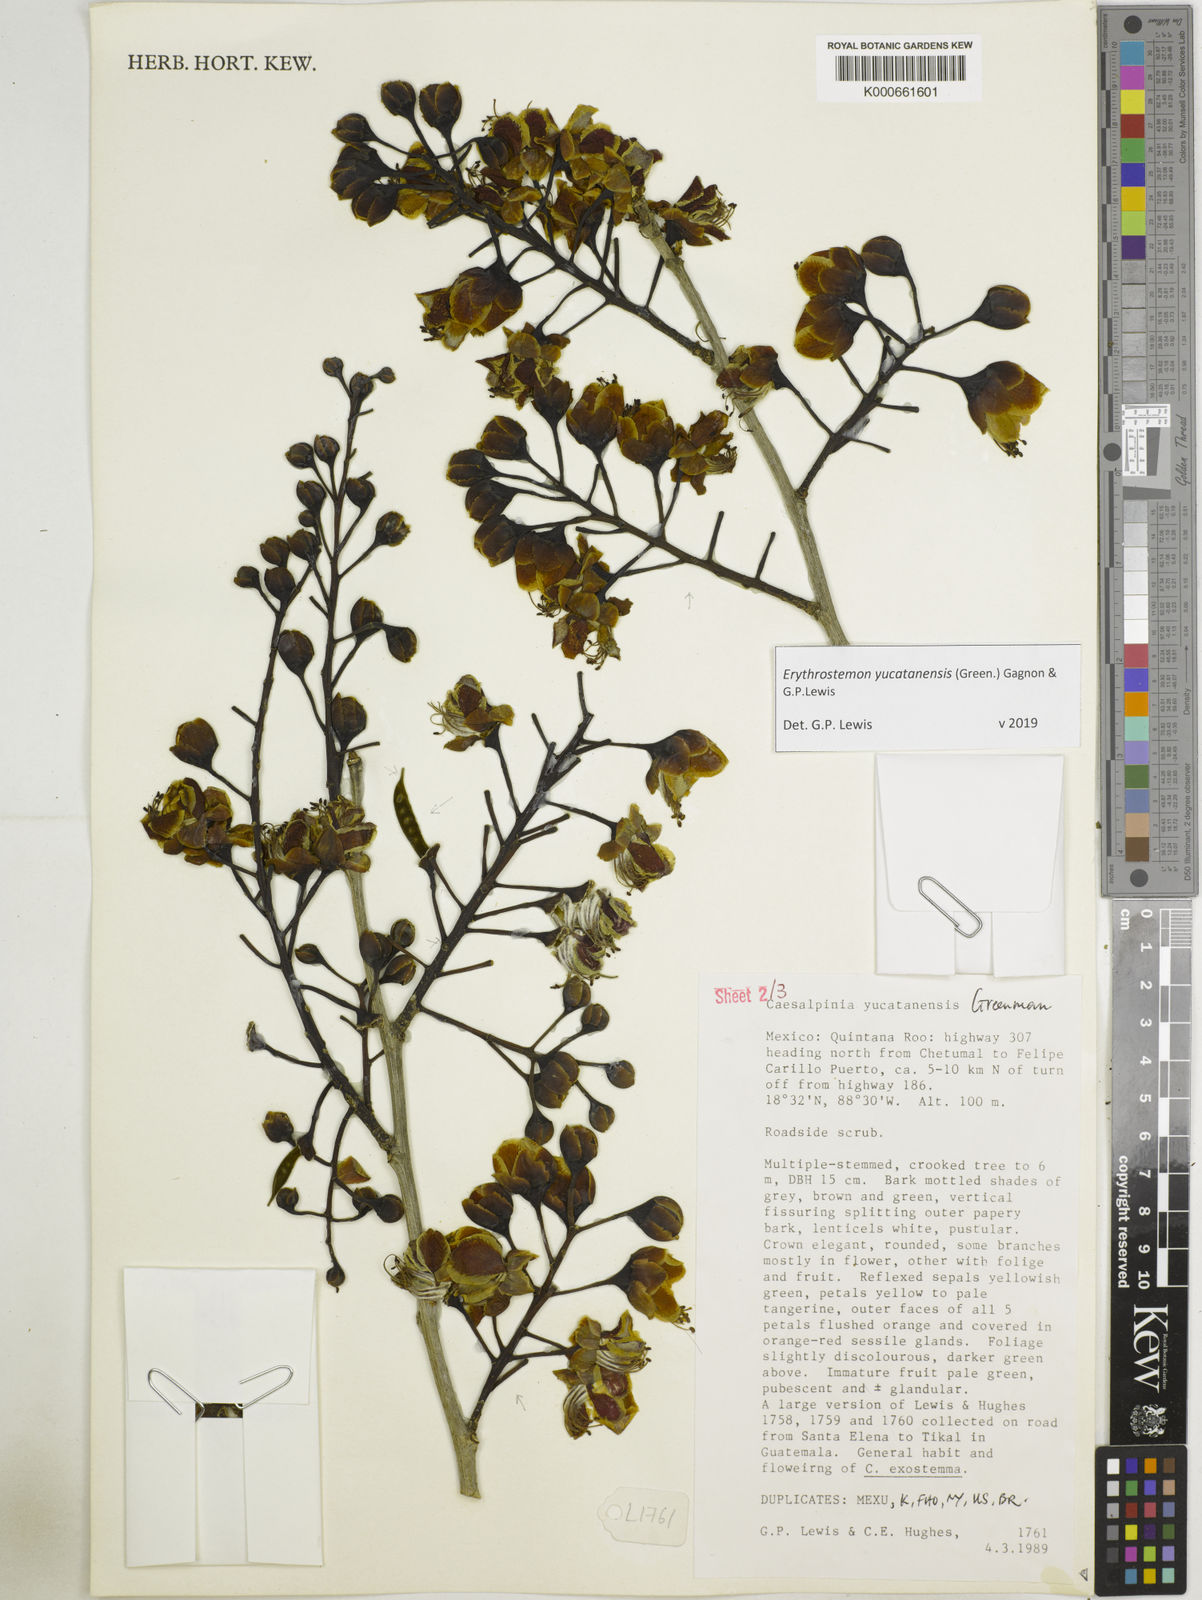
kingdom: Plantae
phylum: Tracheophyta
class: Magnoliopsida
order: Fabales
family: Fabaceae
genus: Caesalpinia
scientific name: Caesalpinia
